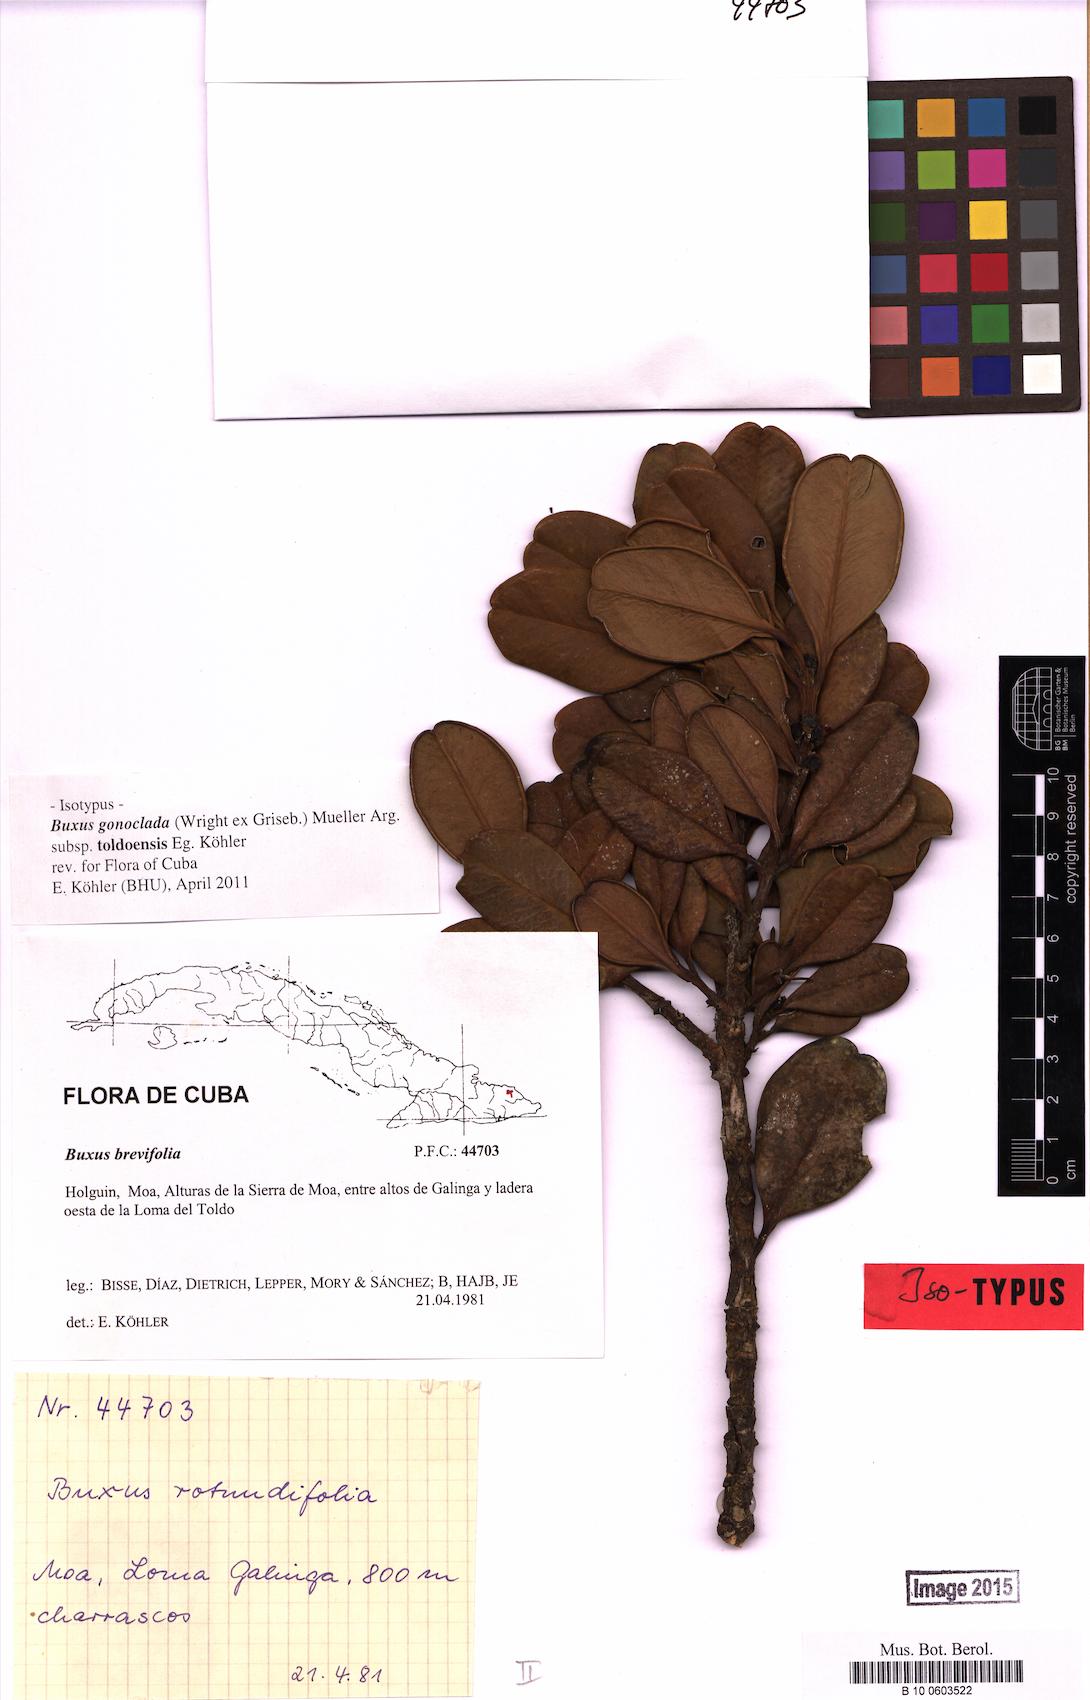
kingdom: Plantae
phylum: Tracheophyta
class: Magnoliopsida
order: Buxales
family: Buxaceae
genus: Buxus
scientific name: Buxus gonoclada
